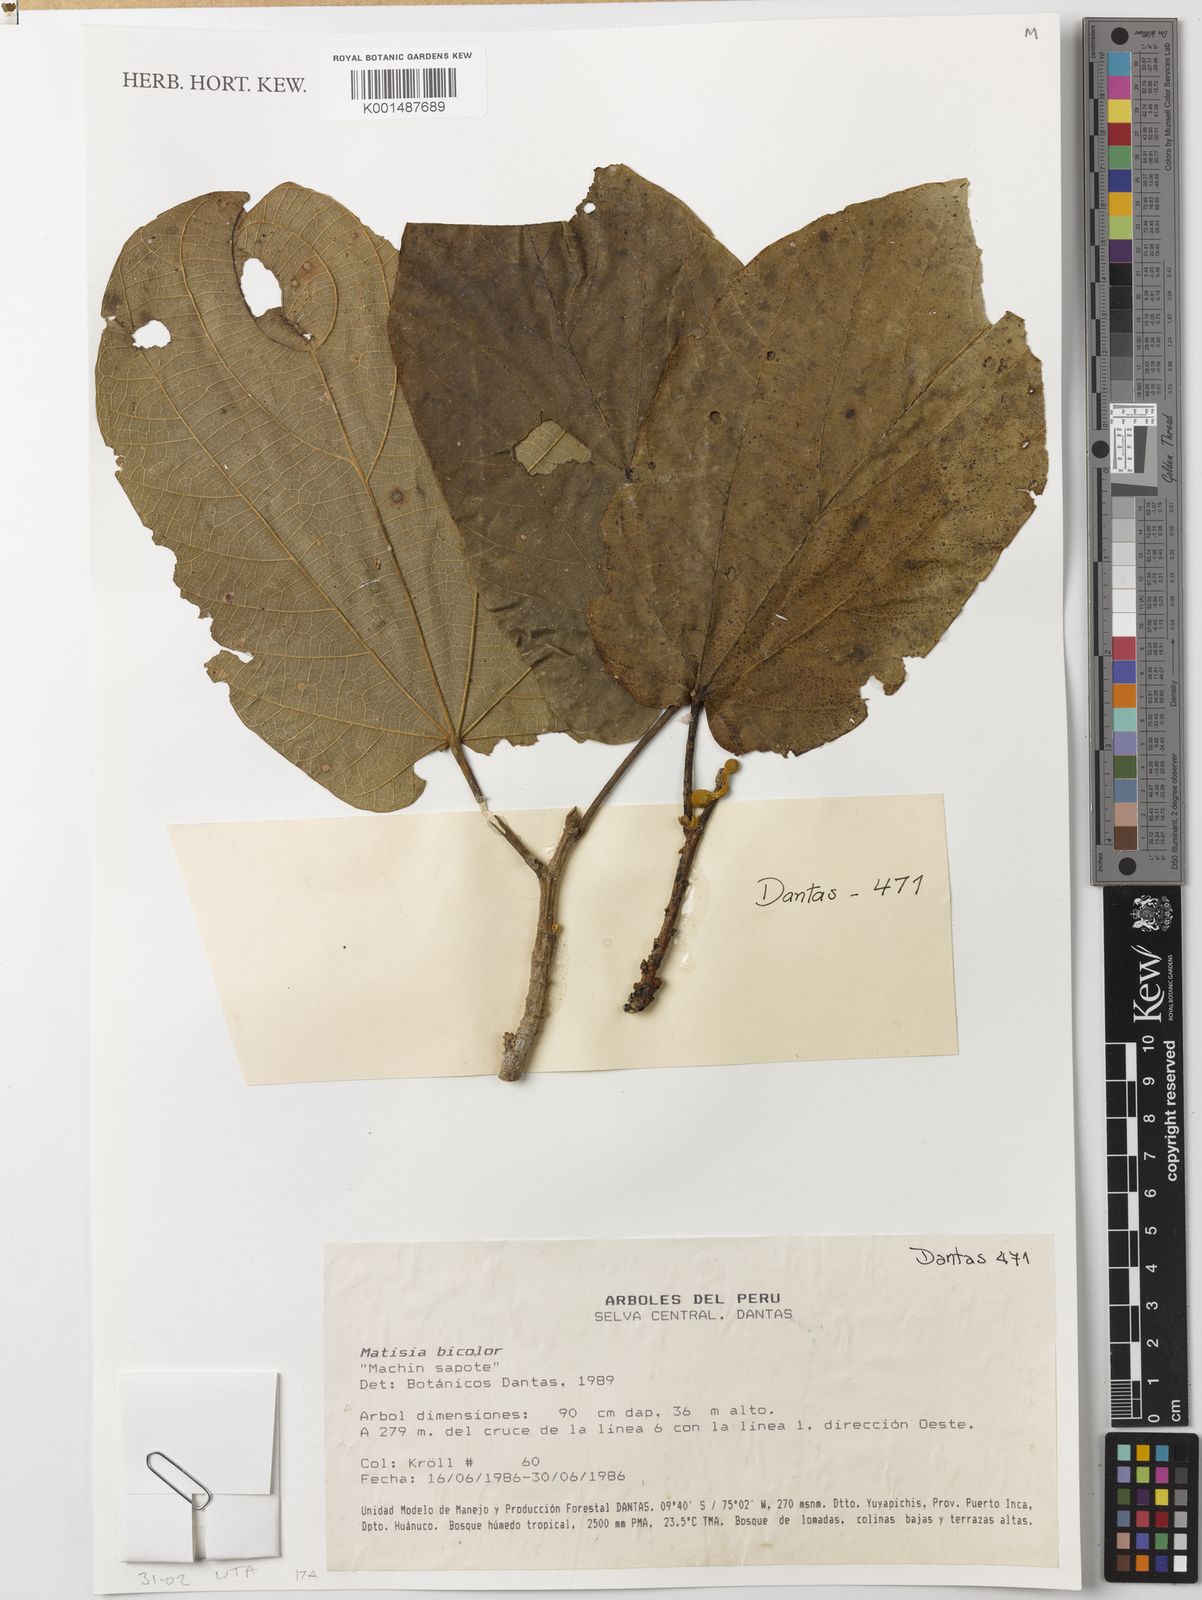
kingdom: Plantae
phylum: Tracheophyta
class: Magnoliopsida
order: Malvales
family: Malvaceae
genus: Matisia
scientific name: Matisia bicolor
